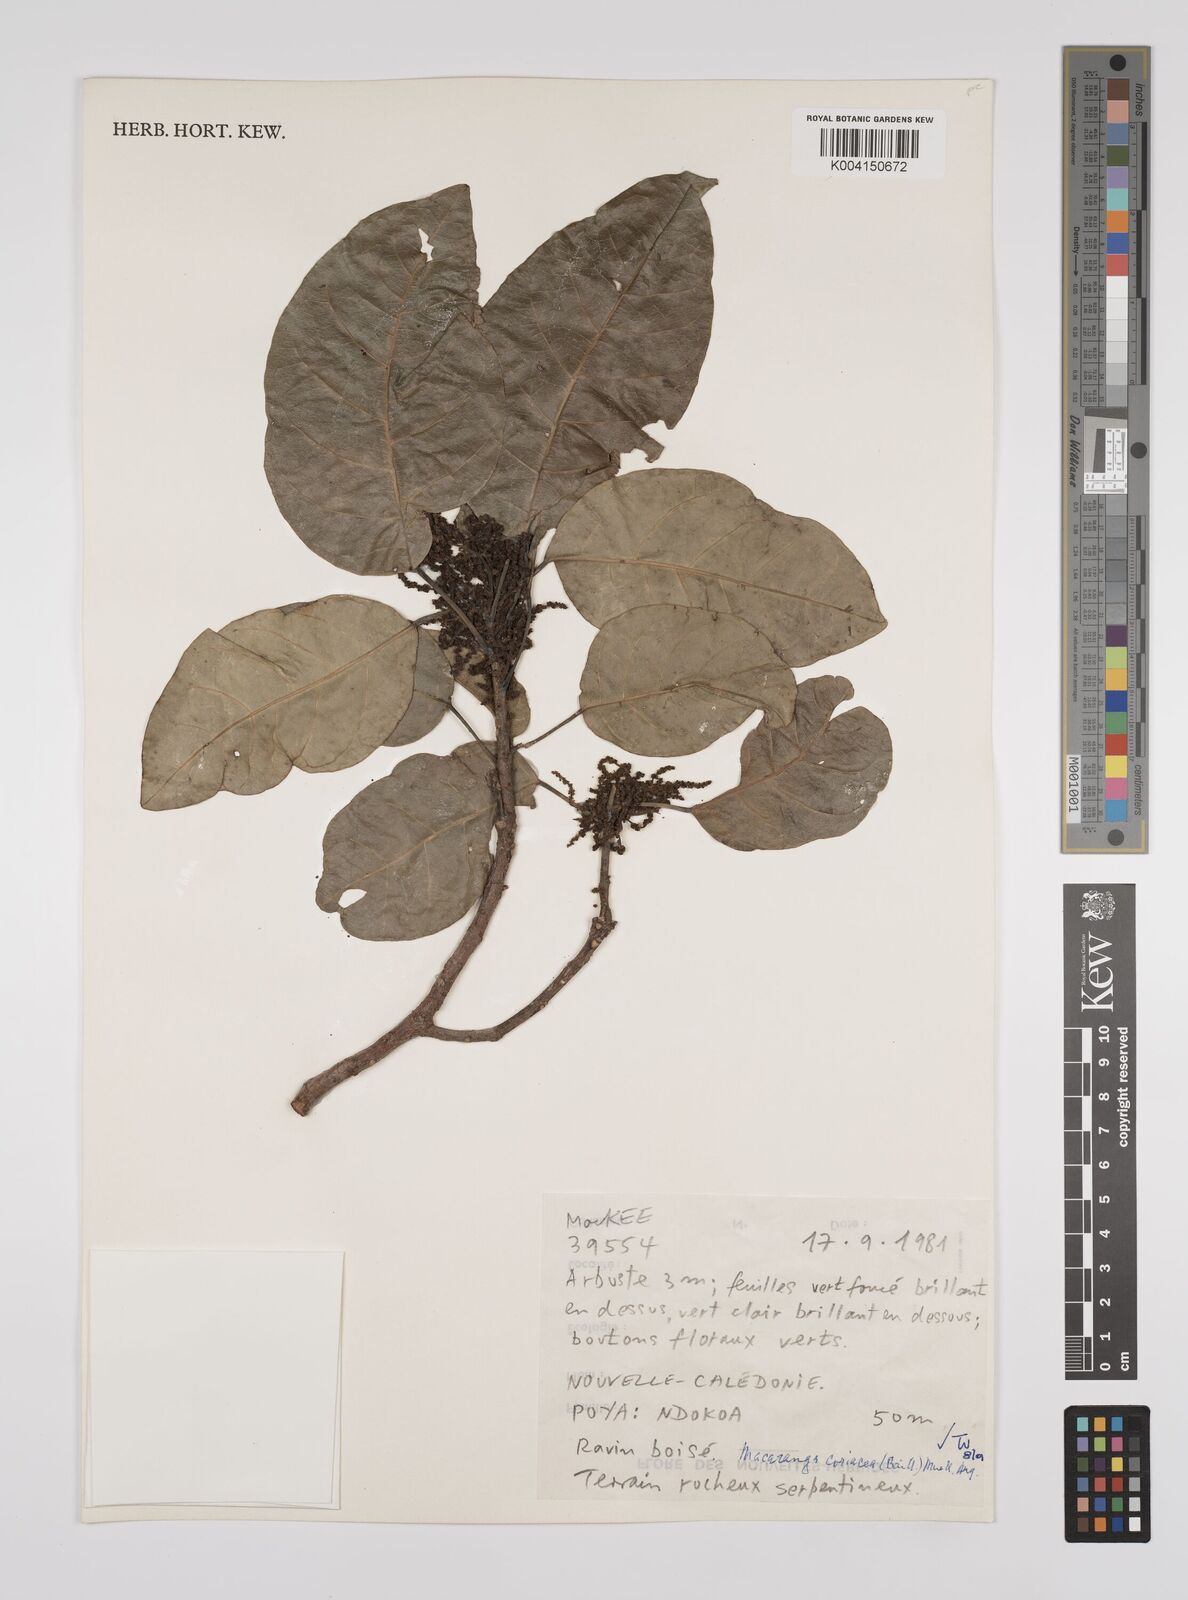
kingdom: Plantae
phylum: Tracheophyta
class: Magnoliopsida
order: Malpighiales
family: Euphorbiaceae
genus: Macaranga
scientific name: Macaranga coriacea
